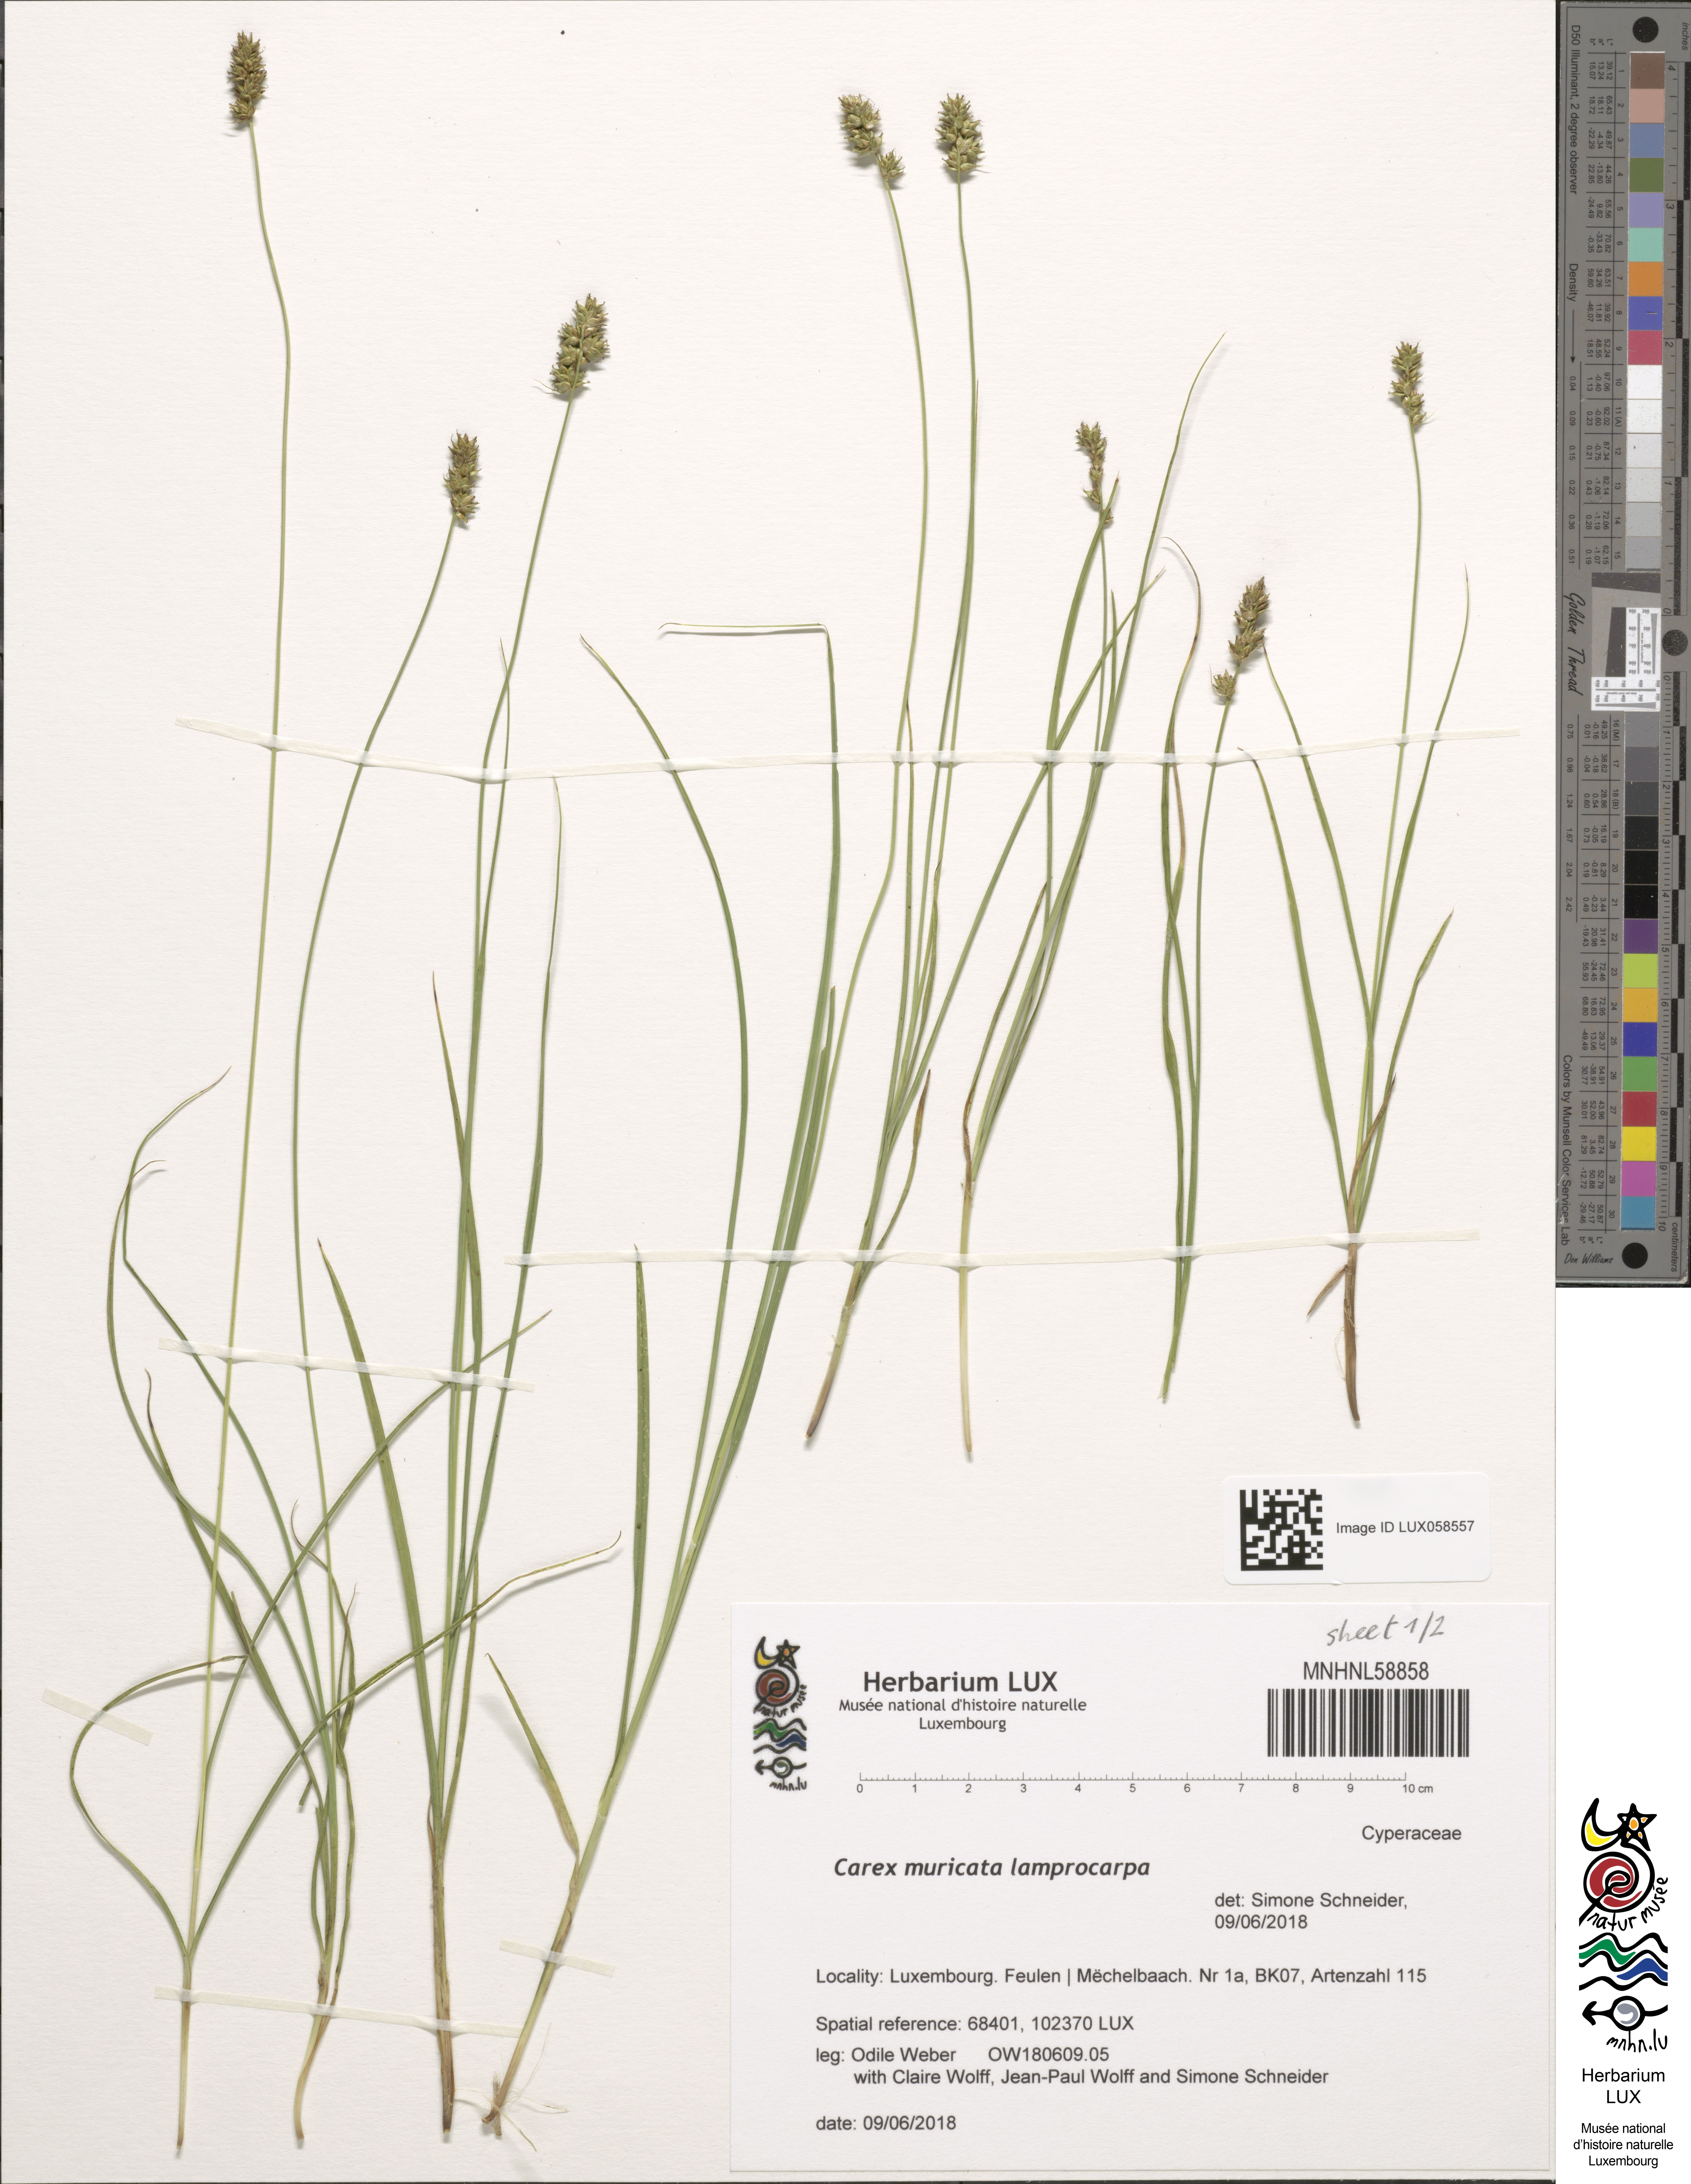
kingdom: Plantae
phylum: Tracheophyta
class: Liliopsida
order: Poales
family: Cyperaceae
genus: Carex
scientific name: Carex muricata
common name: Rough sedge
